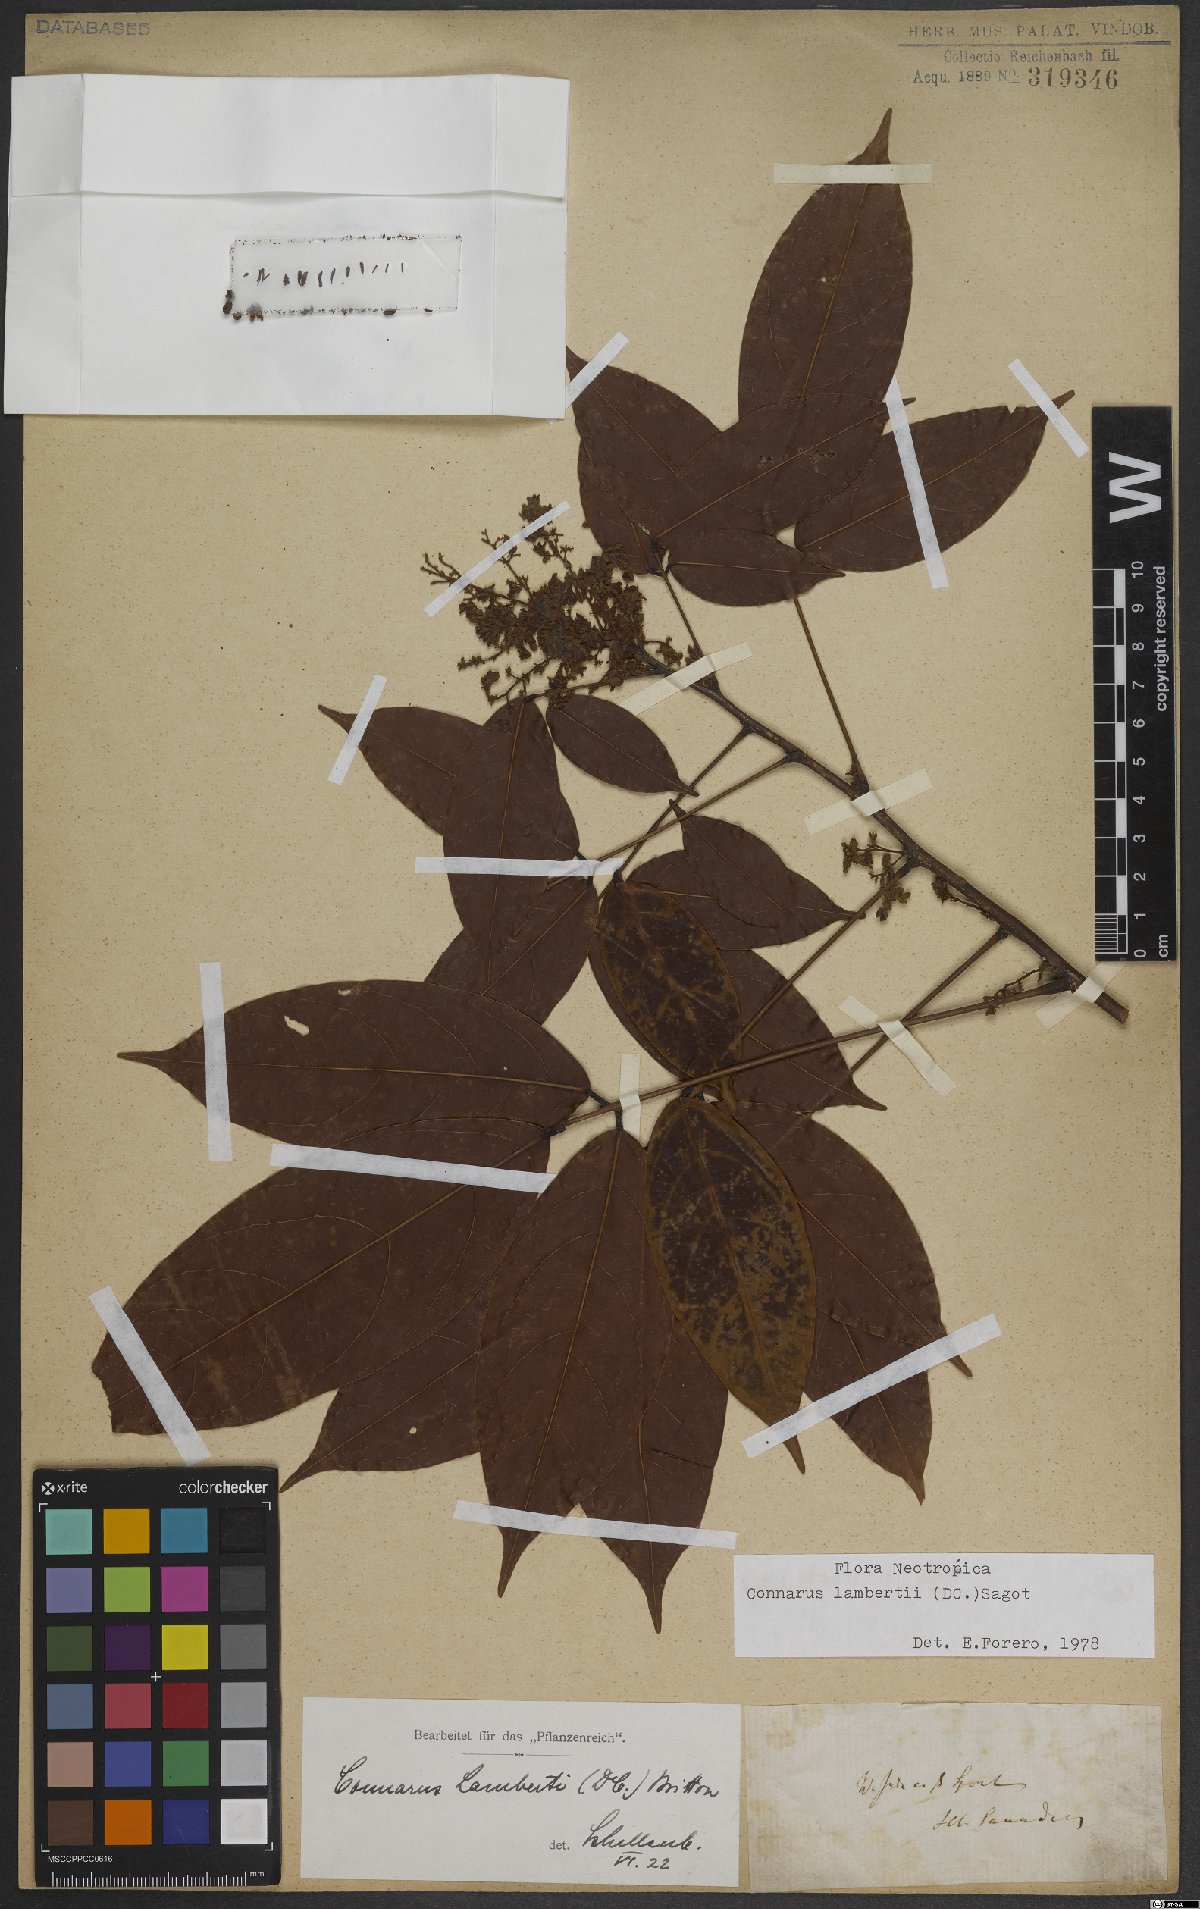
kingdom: Plantae
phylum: Tracheophyta
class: Magnoliopsida
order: Oxalidales
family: Connaraceae
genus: Connarus
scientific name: Connarus lambertii
